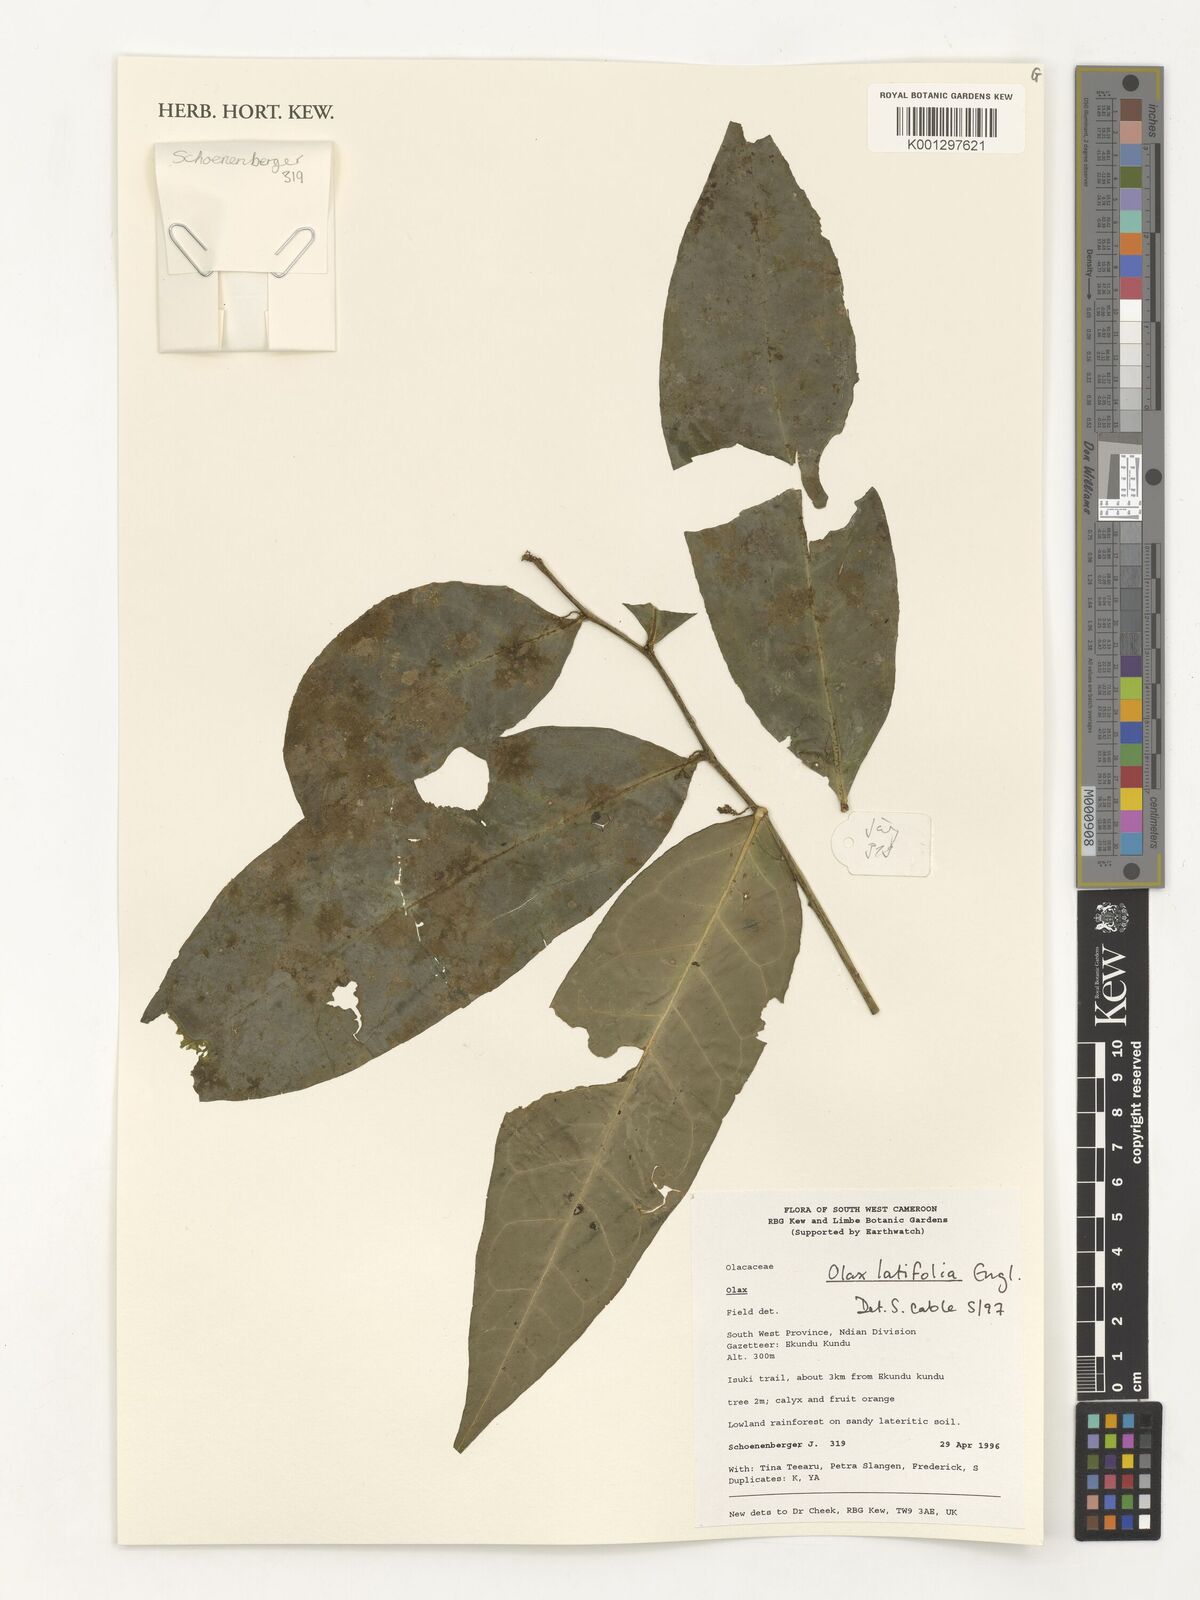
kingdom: Plantae
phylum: Tracheophyta
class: Magnoliopsida
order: Santalales
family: Olacaceae
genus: Olax
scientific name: Olax latifolia
